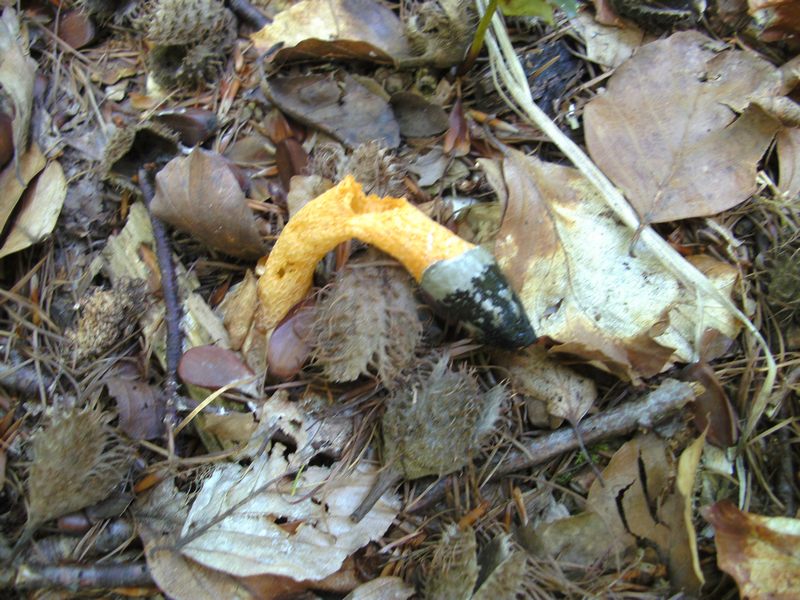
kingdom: Fungi
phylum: Basidiomycota
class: Agaricomycetes
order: Phallales
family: Phallaceae
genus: Mutinus
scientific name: Mutinus caninus
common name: hunde-stinksvamp
